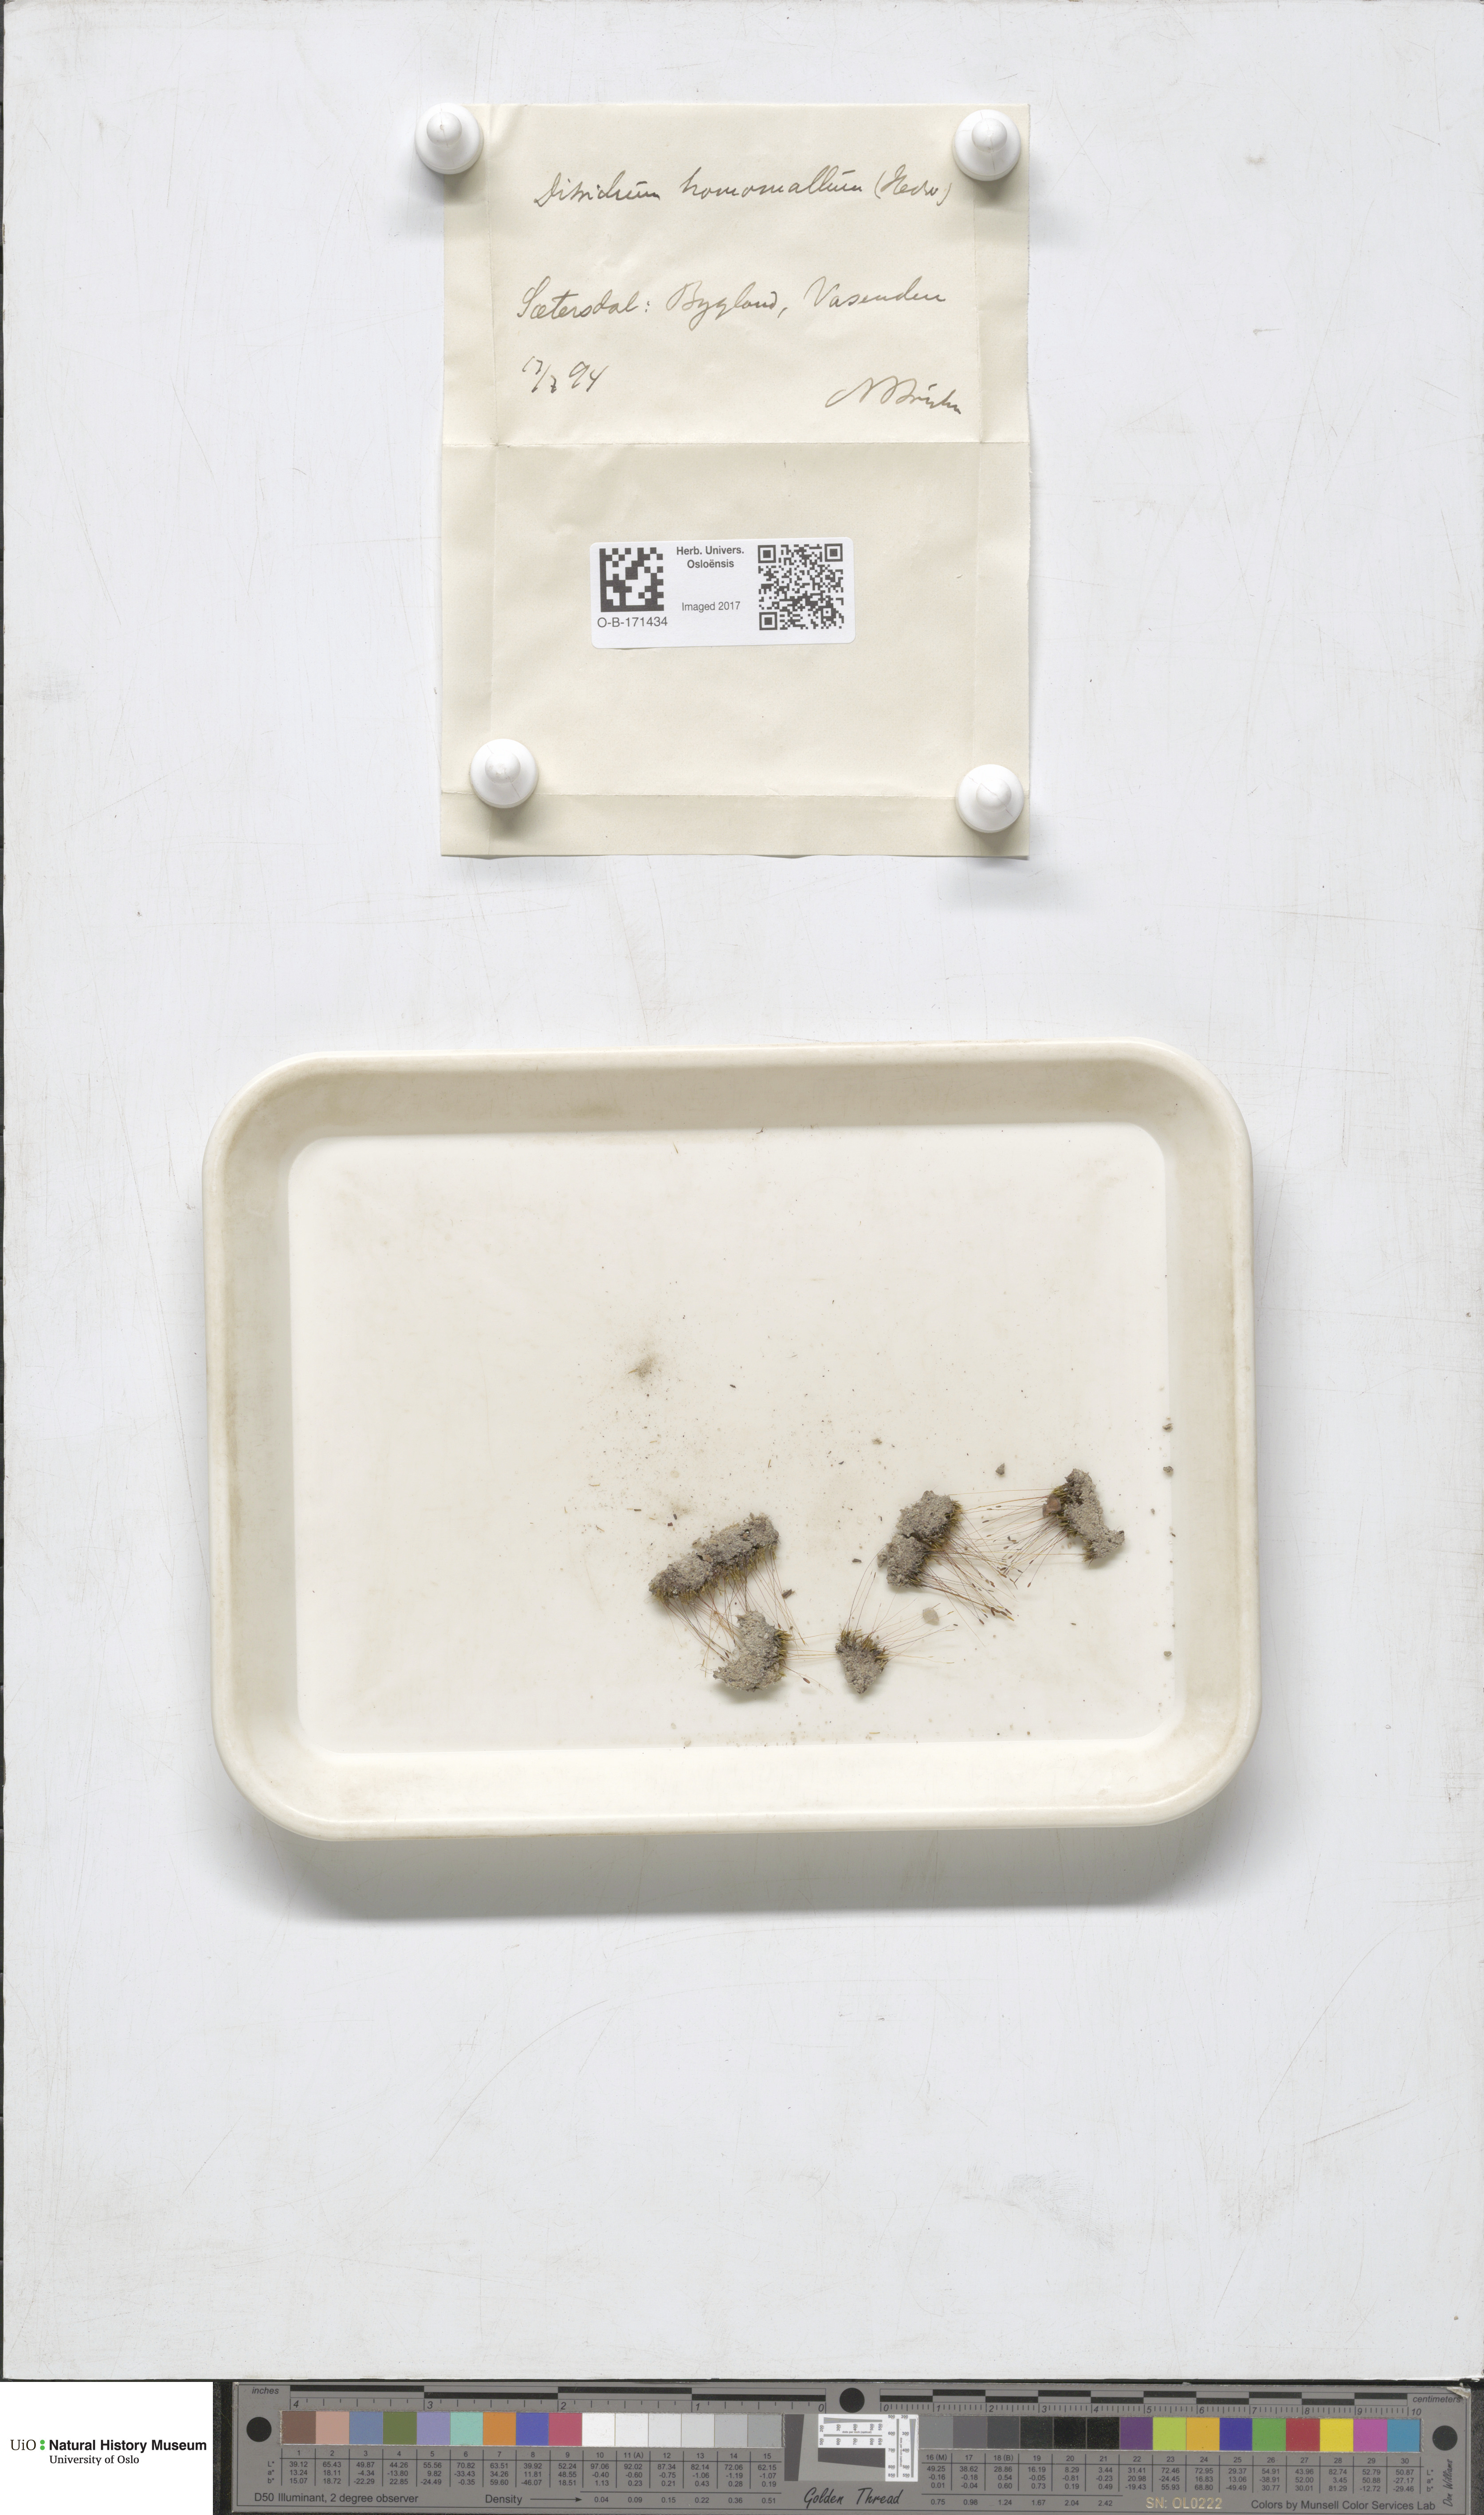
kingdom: Plantae
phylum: Bryophyta
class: Bryopsida
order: Dicranales
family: Ditrichaceae
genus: Ditrichum
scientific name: Ditrichum heteromallum
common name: Curve-leaved ditrichum
